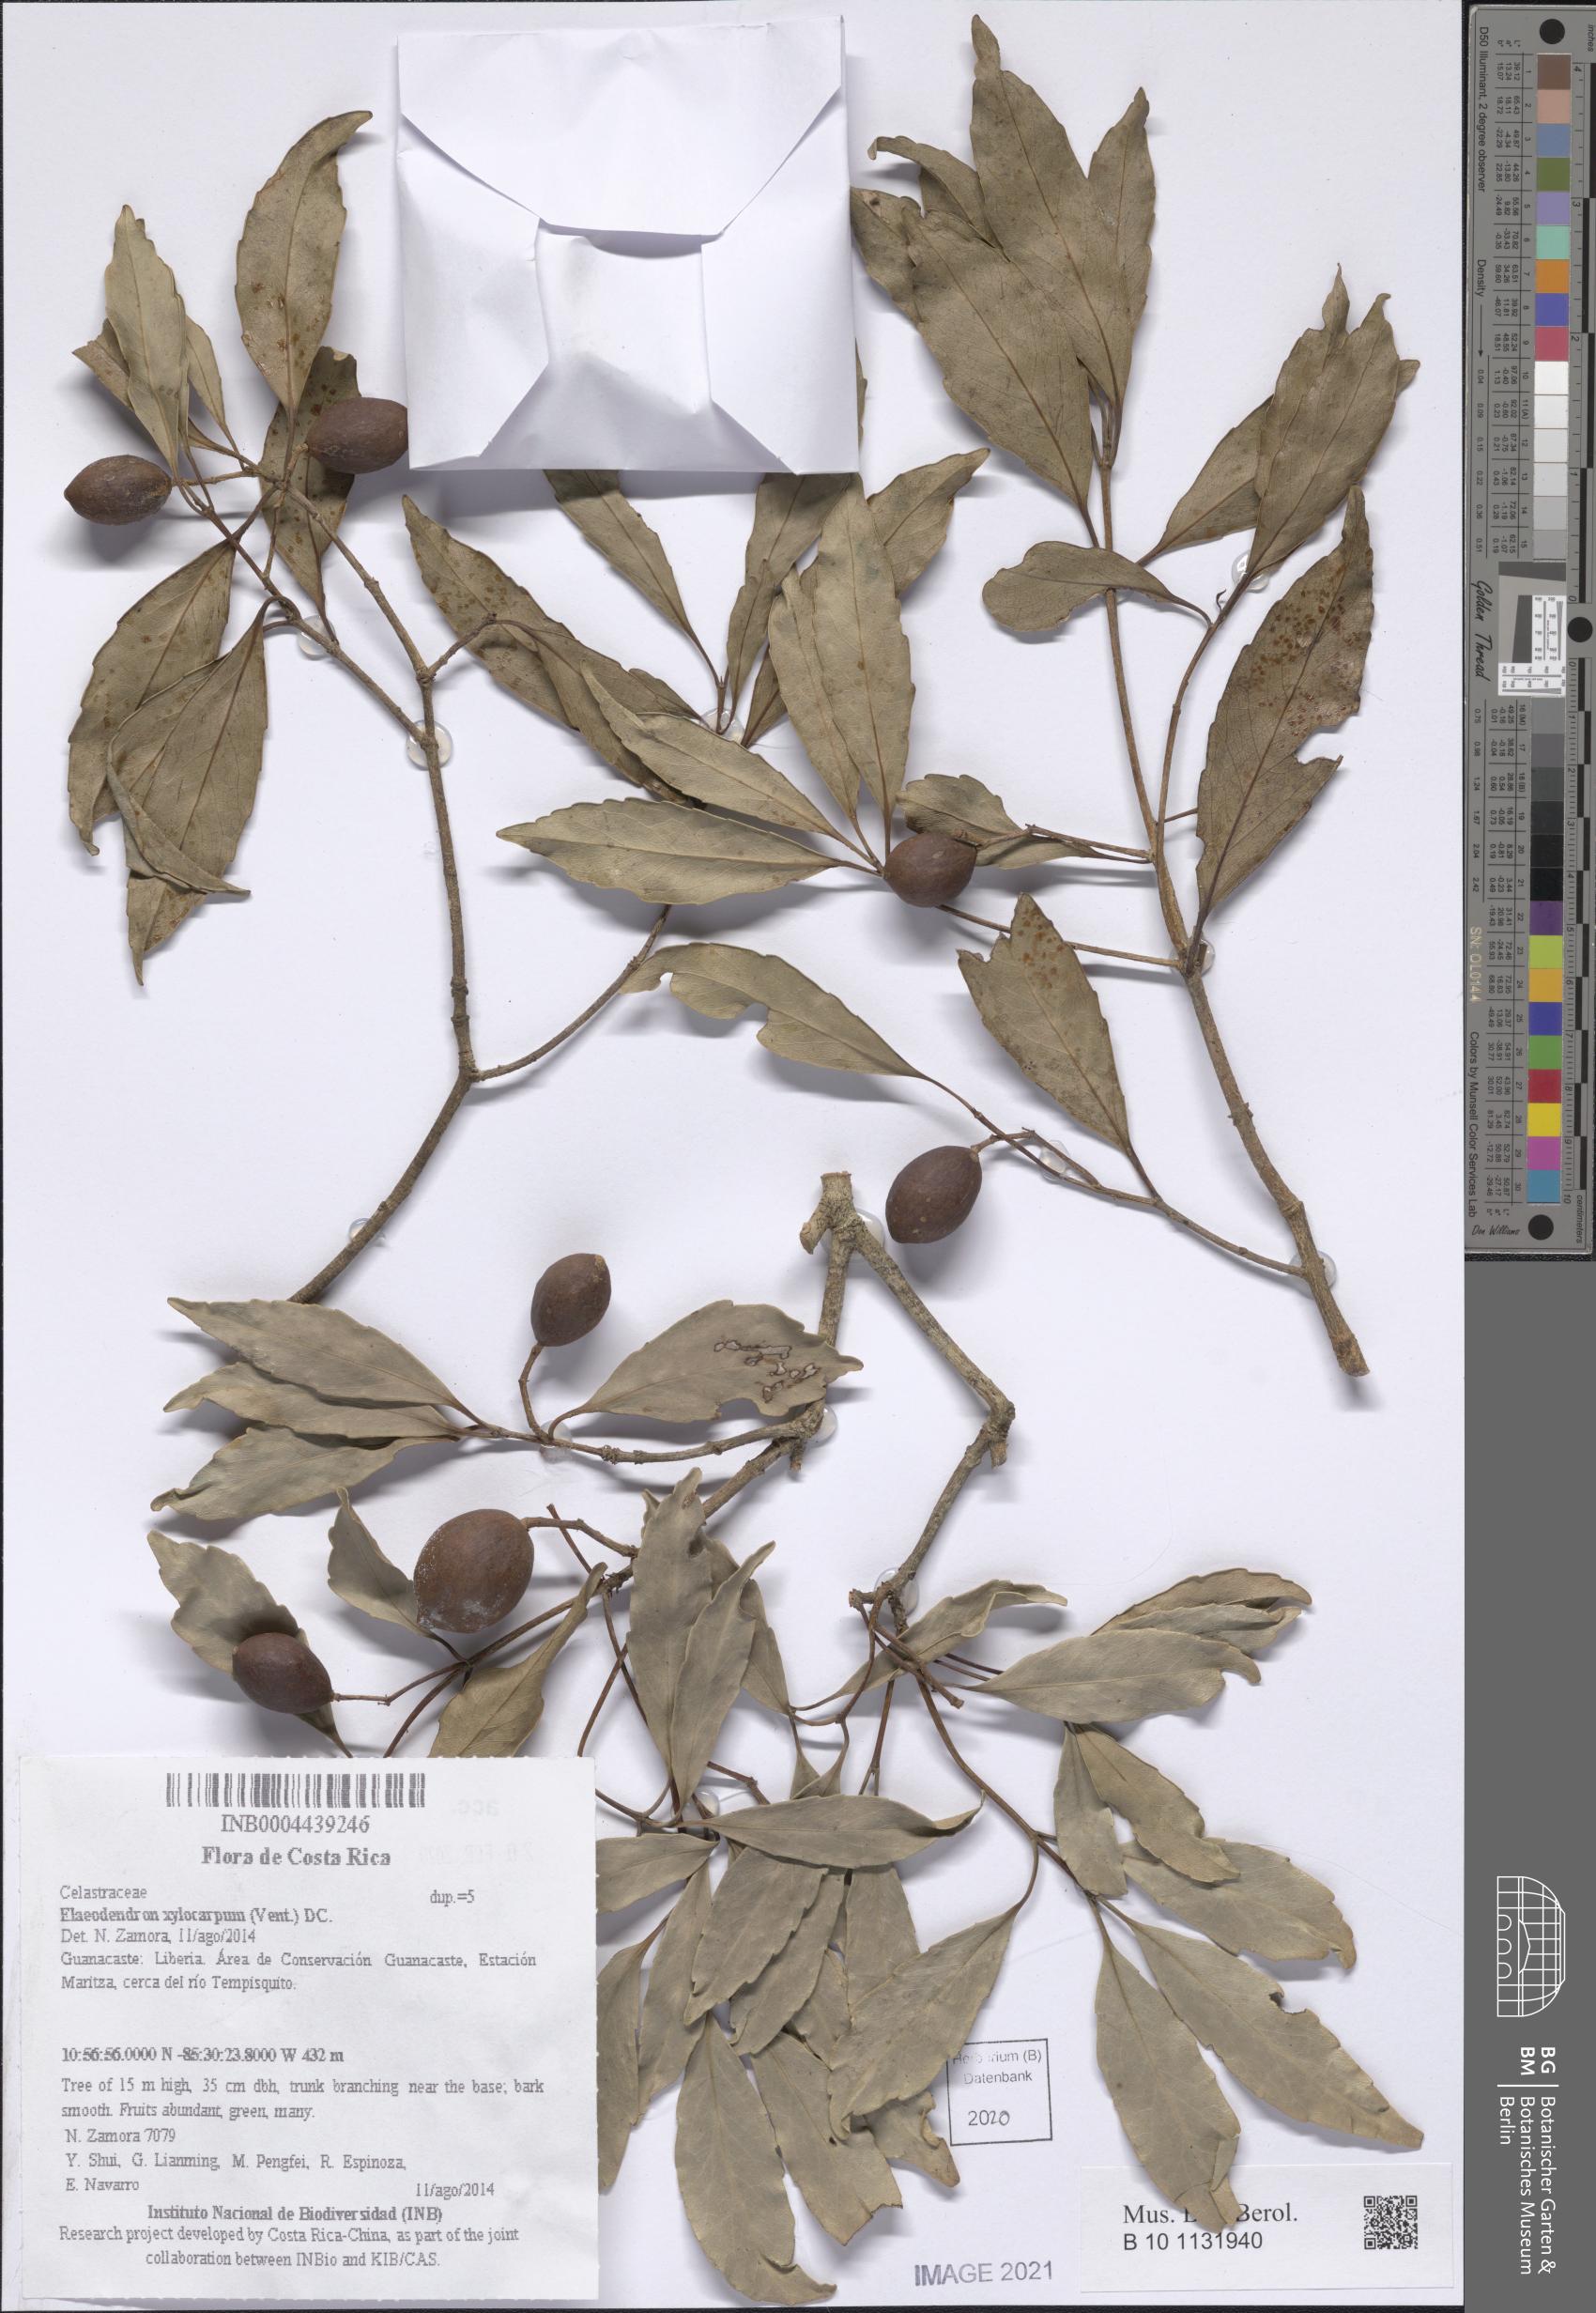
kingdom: Plantae
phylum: Tracheophyta
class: Magnoliopsida
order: Celastrales
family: Celastraceae
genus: Elaeodendron
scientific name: Elaeodendron xylocarpum
